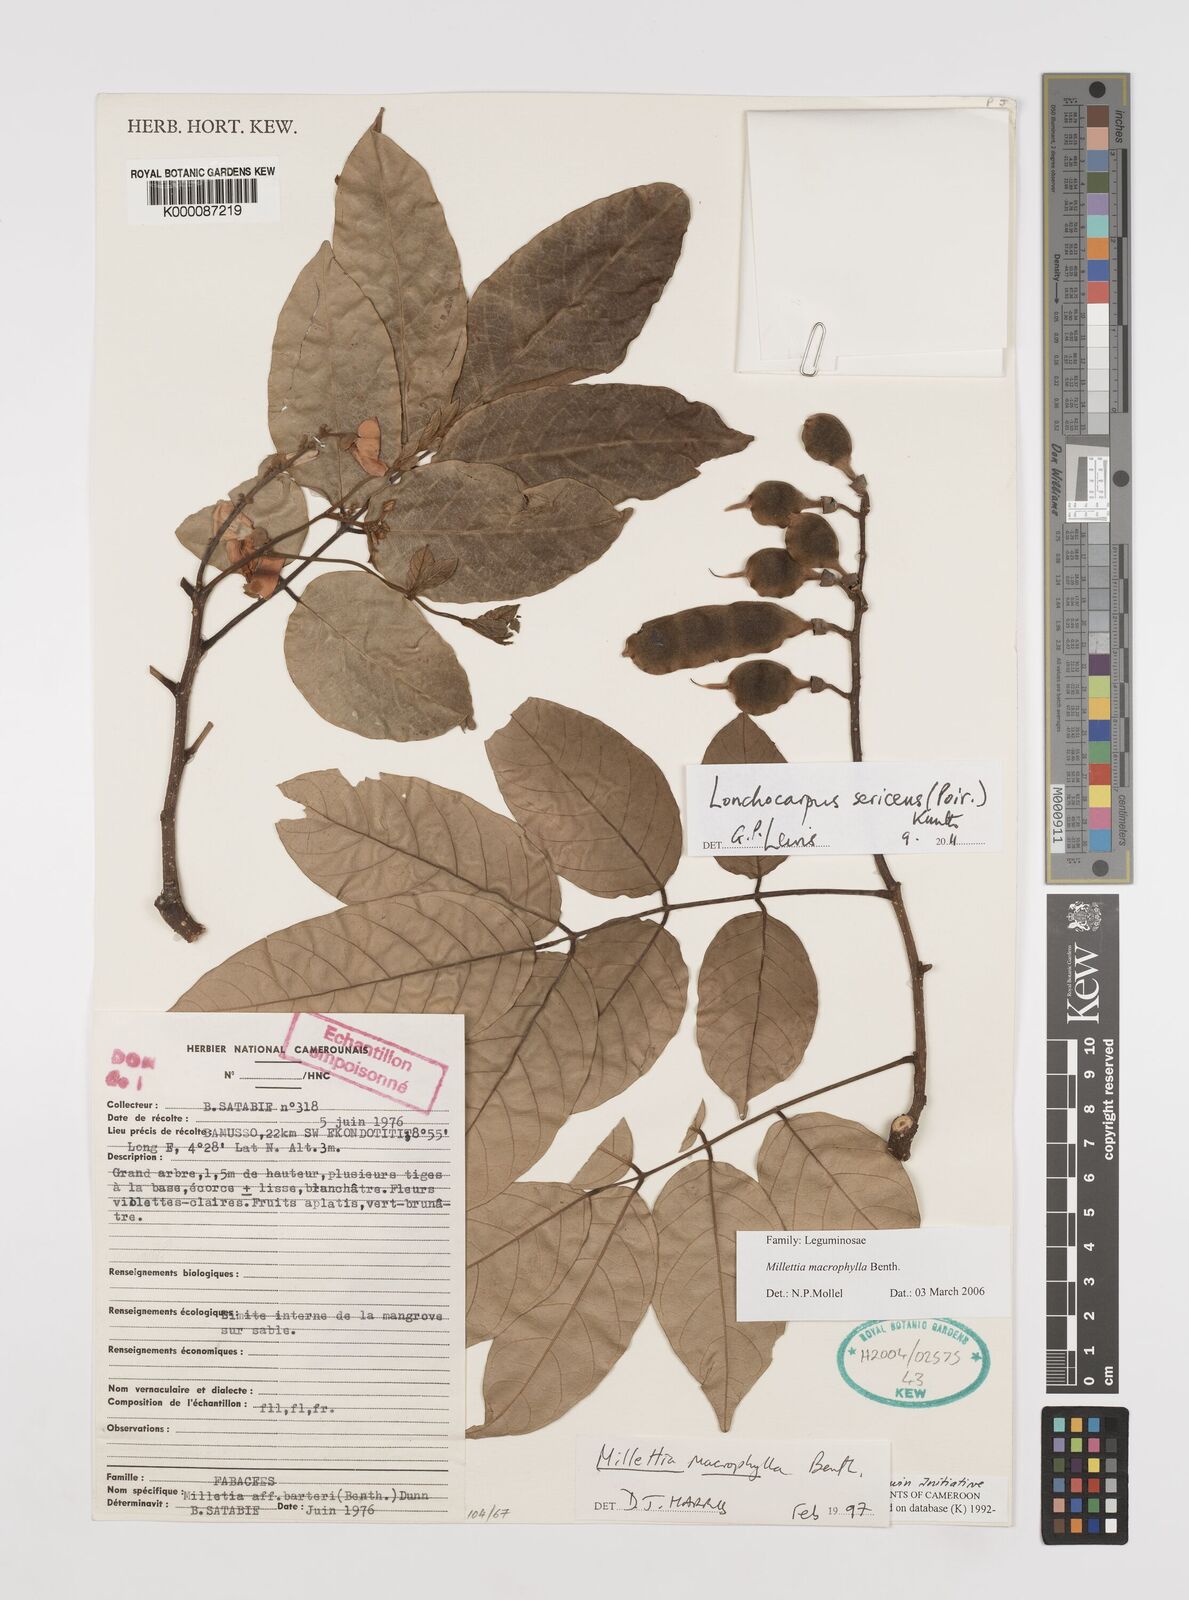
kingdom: Plantae
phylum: Tracheophyta
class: Magnoliopsida
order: Fabales
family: Fabaceae
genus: Lonchocarpus
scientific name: Lonchocarpus
